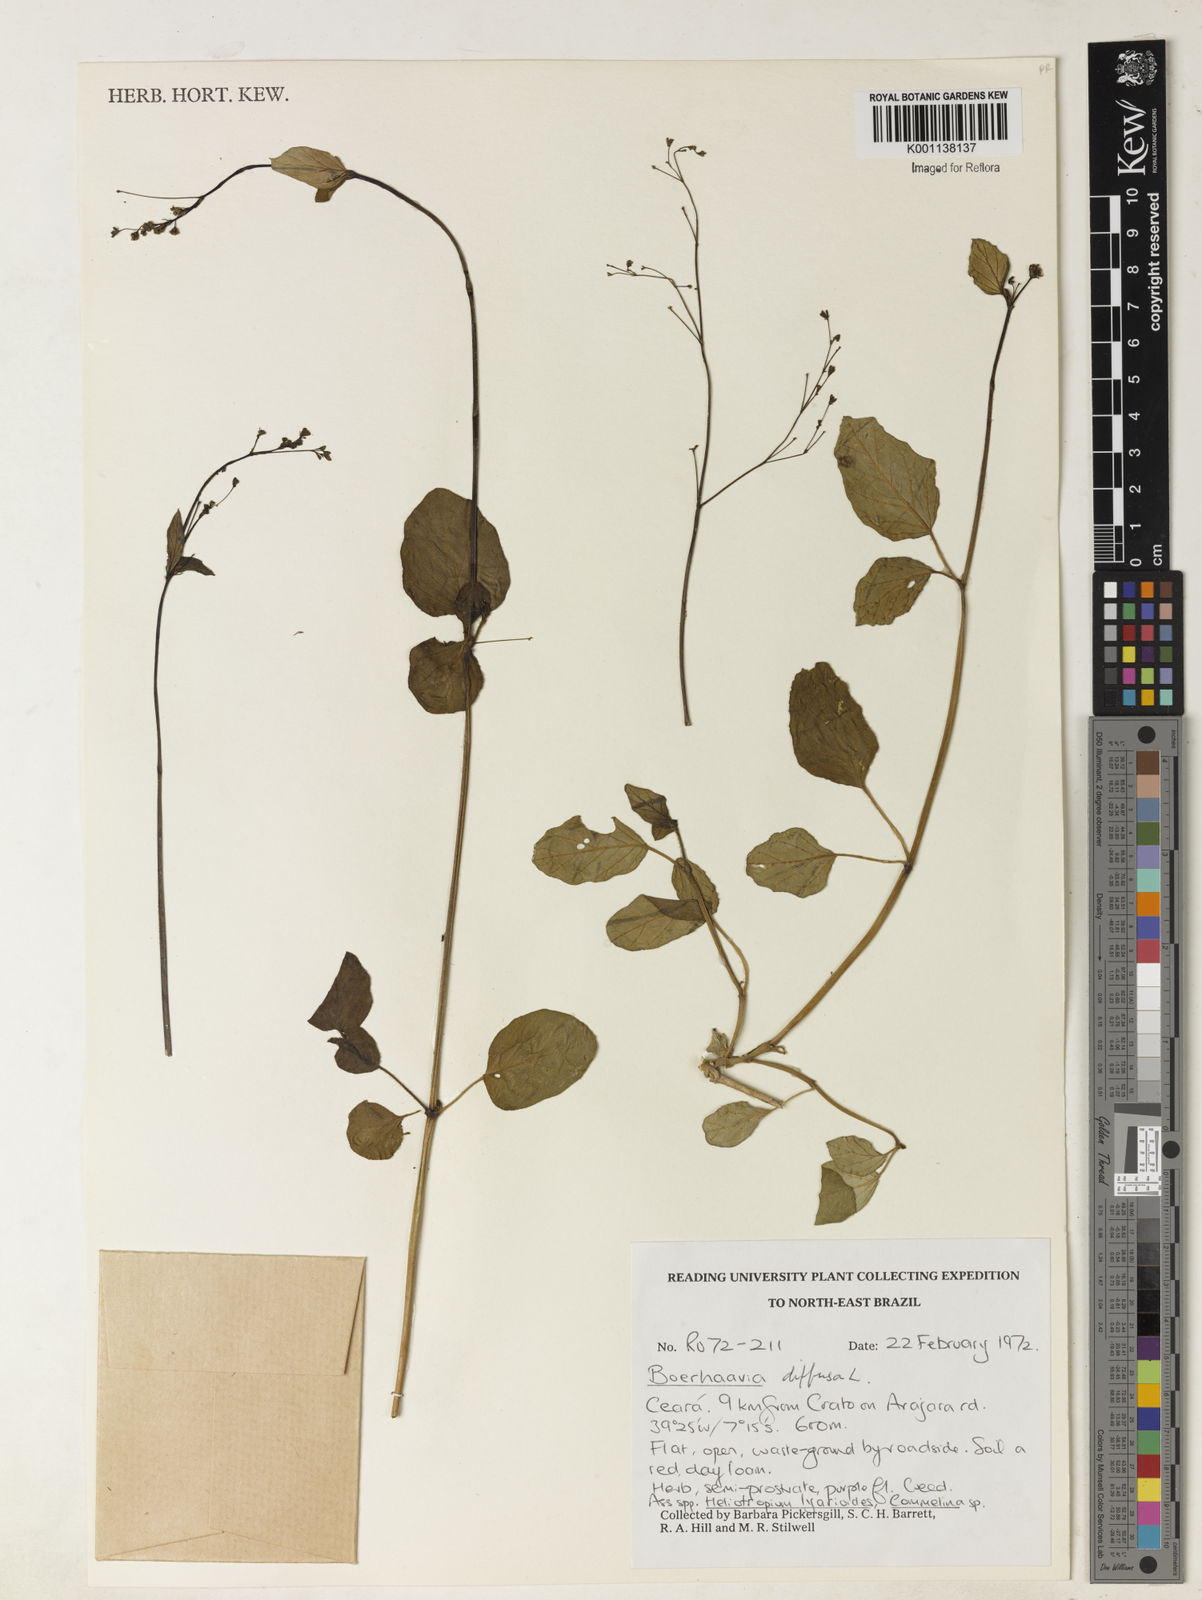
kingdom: Plantae
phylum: Tracheophyta
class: Magnoliopsida
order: Caryophyllales
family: Nyctaginaceae
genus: Boerhavia
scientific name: Boerhavia diffusa
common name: Red spiderling
